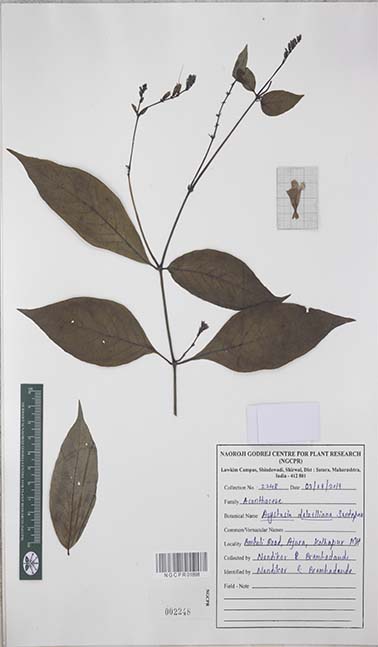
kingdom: Plantae
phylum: Tracheophyta
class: Magnoliopsida
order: Lamiales
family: Acanthaceae
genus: Asystasia
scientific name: Asystasia dalzelliana
